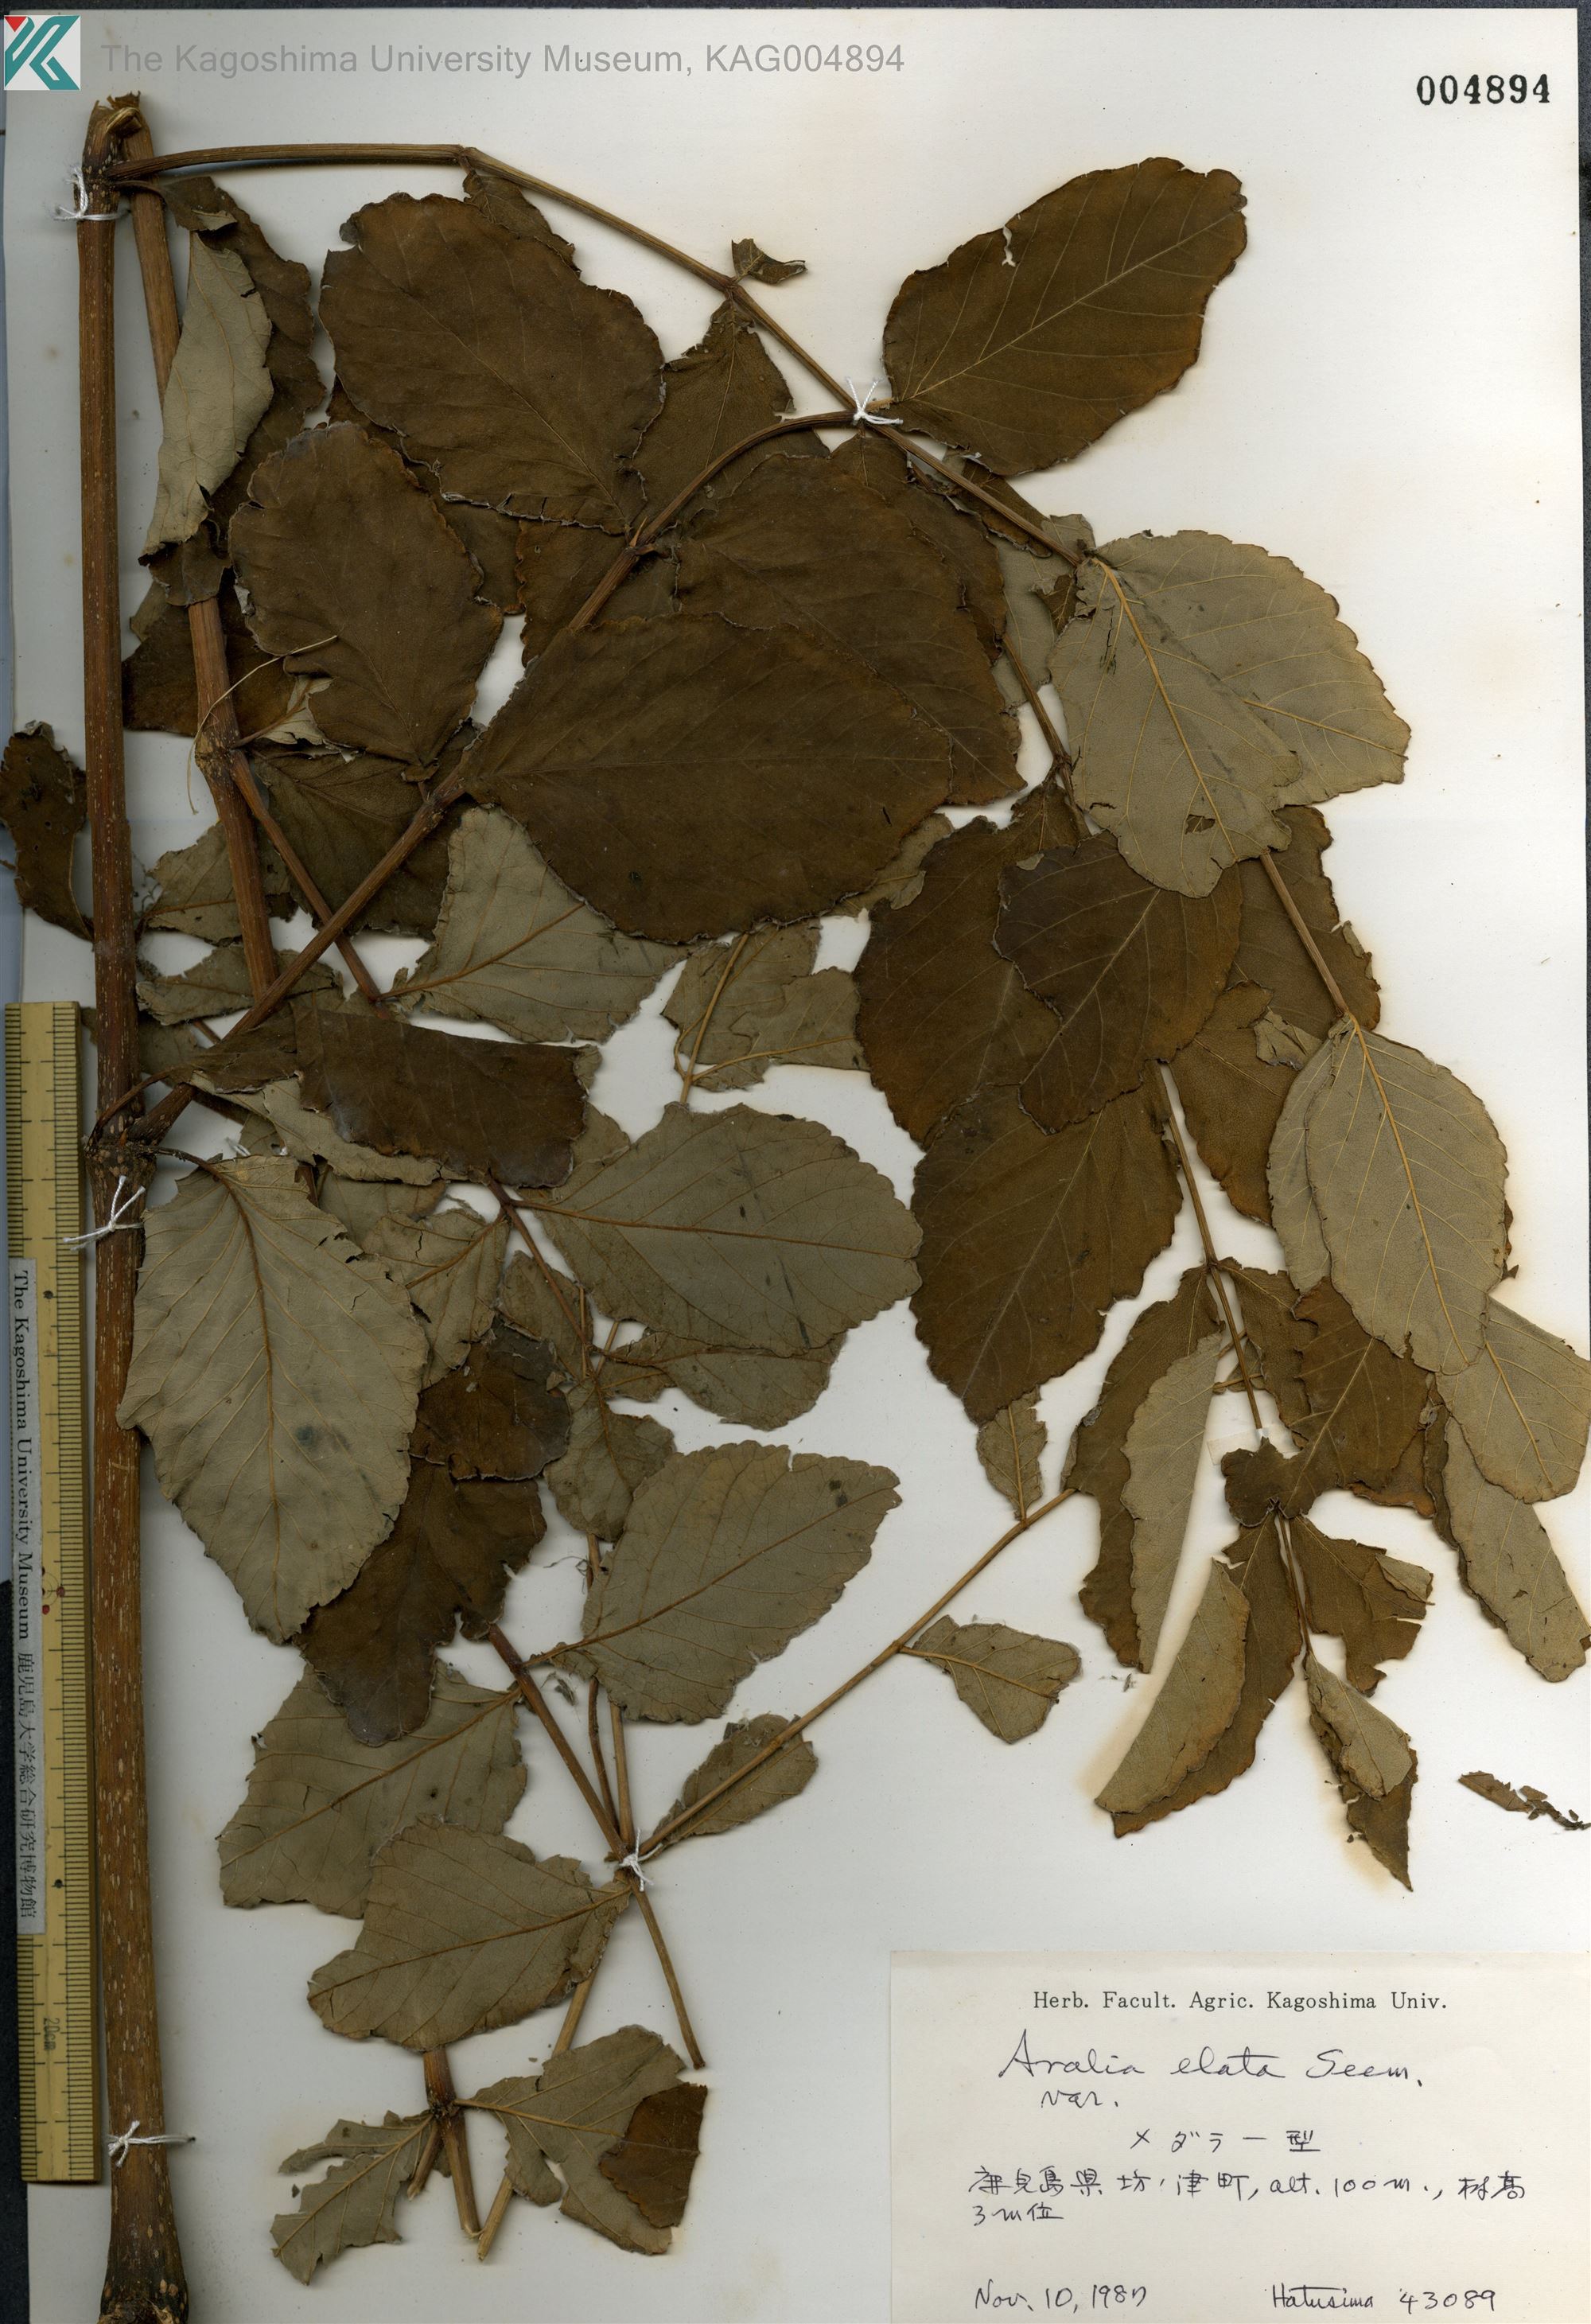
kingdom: Plantae
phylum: Tracheophyta
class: Magnoliopsida
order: Apiales
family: Araliaceae
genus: Aralia
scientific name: Aralia elata
